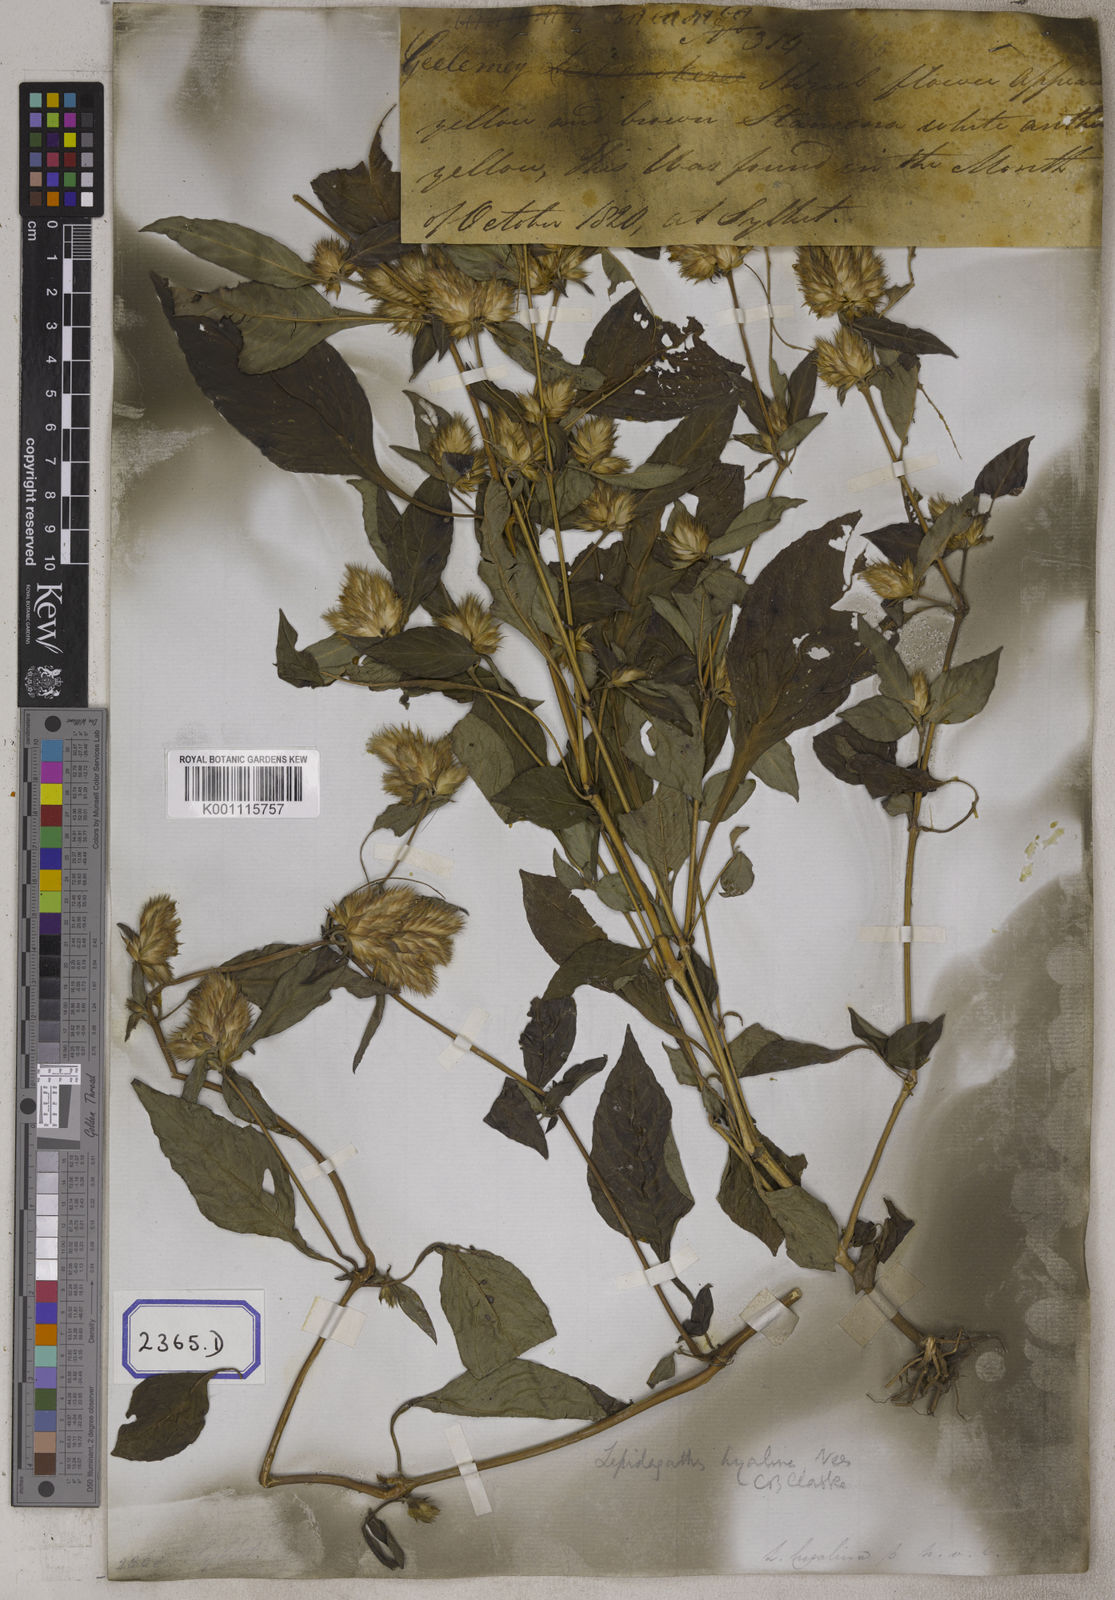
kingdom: Plantae
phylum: Tracheophyta
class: Magnoliopsida
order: Lamiales
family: Acanthaceae
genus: Lepidagathis
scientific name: Lepidagathis incurva
